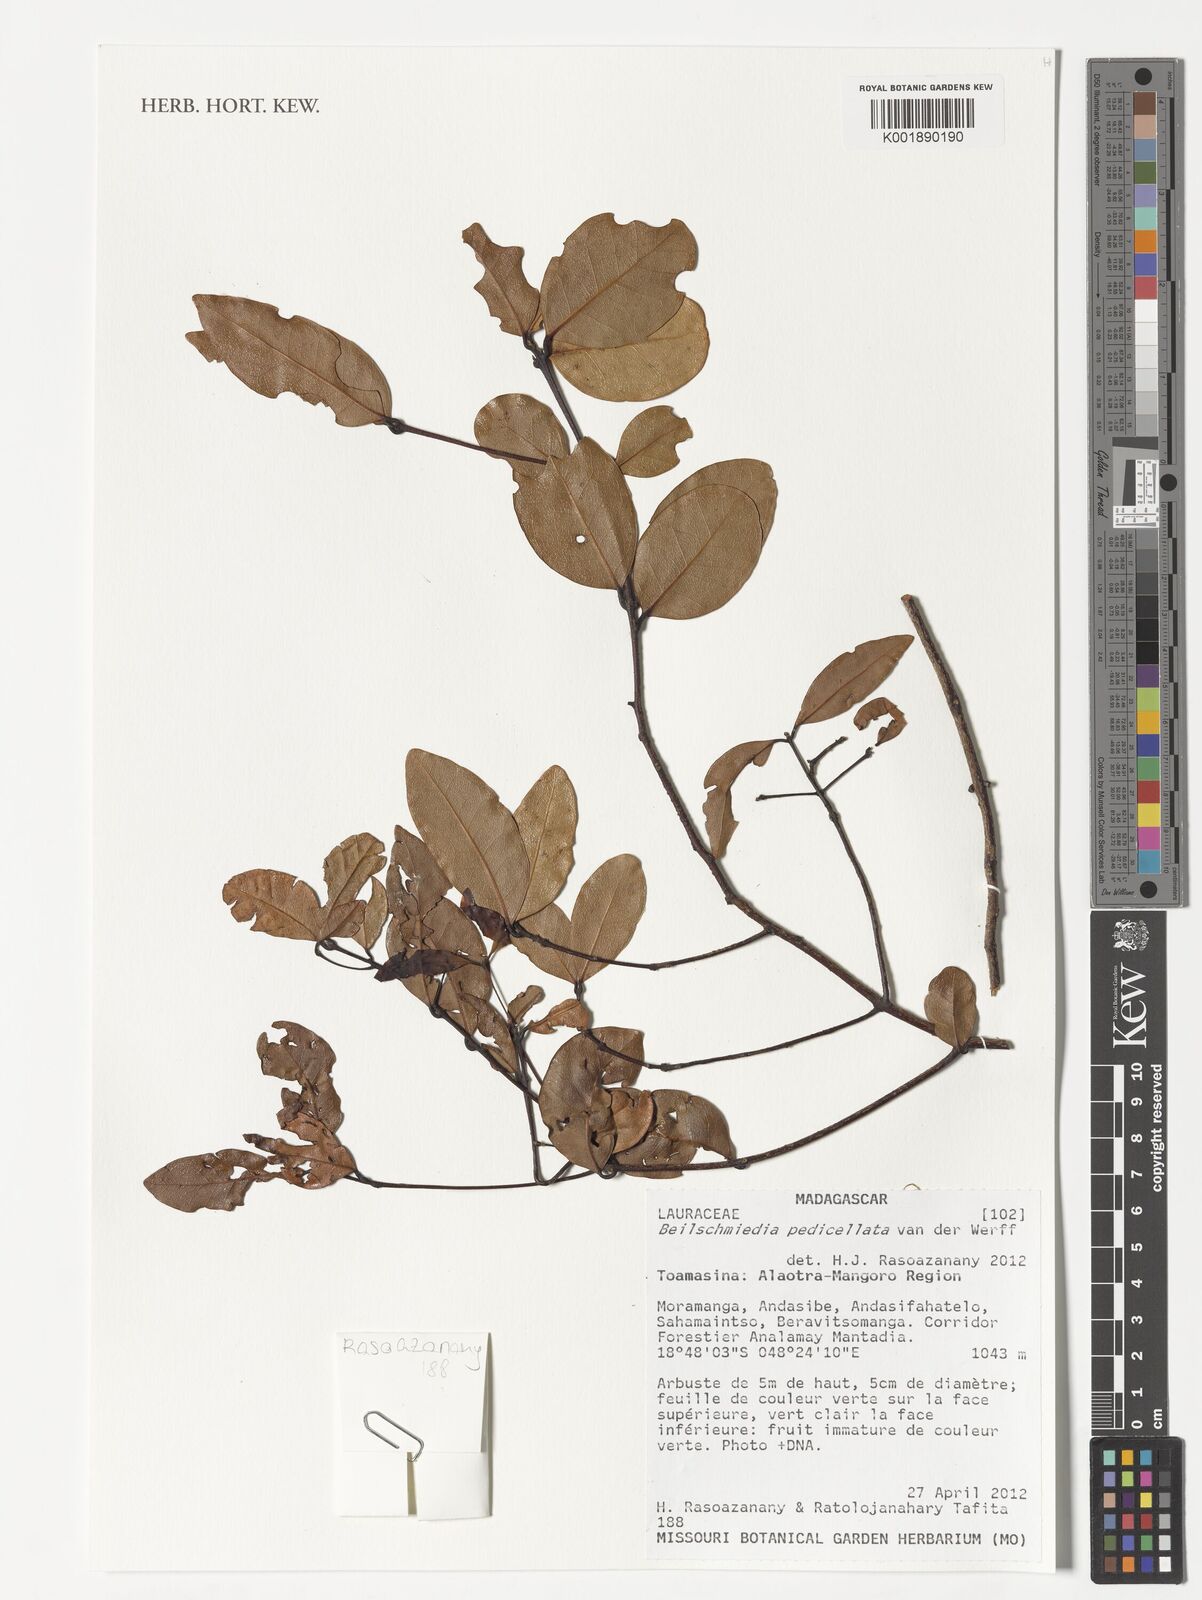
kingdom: Plantae
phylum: Tracheophyta
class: Magnoliopsida
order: Laurales
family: Lauraceae
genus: Beilschmiedia
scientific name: Beilschmiedia pedicellata
